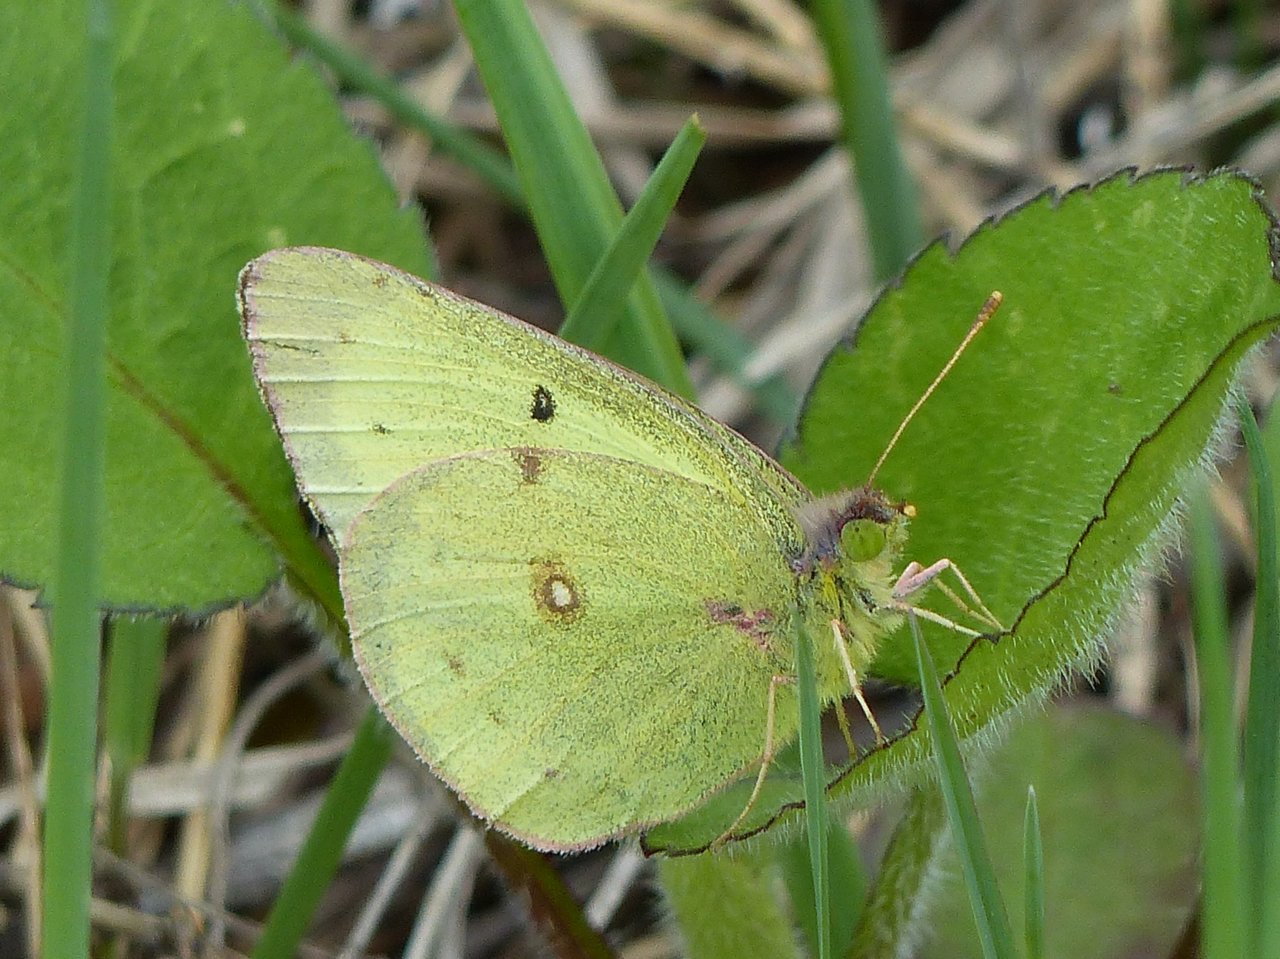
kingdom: Animalia
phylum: Arthropoda
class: Insecta
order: Lepidoptera
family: Pieridae
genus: Colias
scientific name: Colias philodice
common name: Clouded Sulphur
